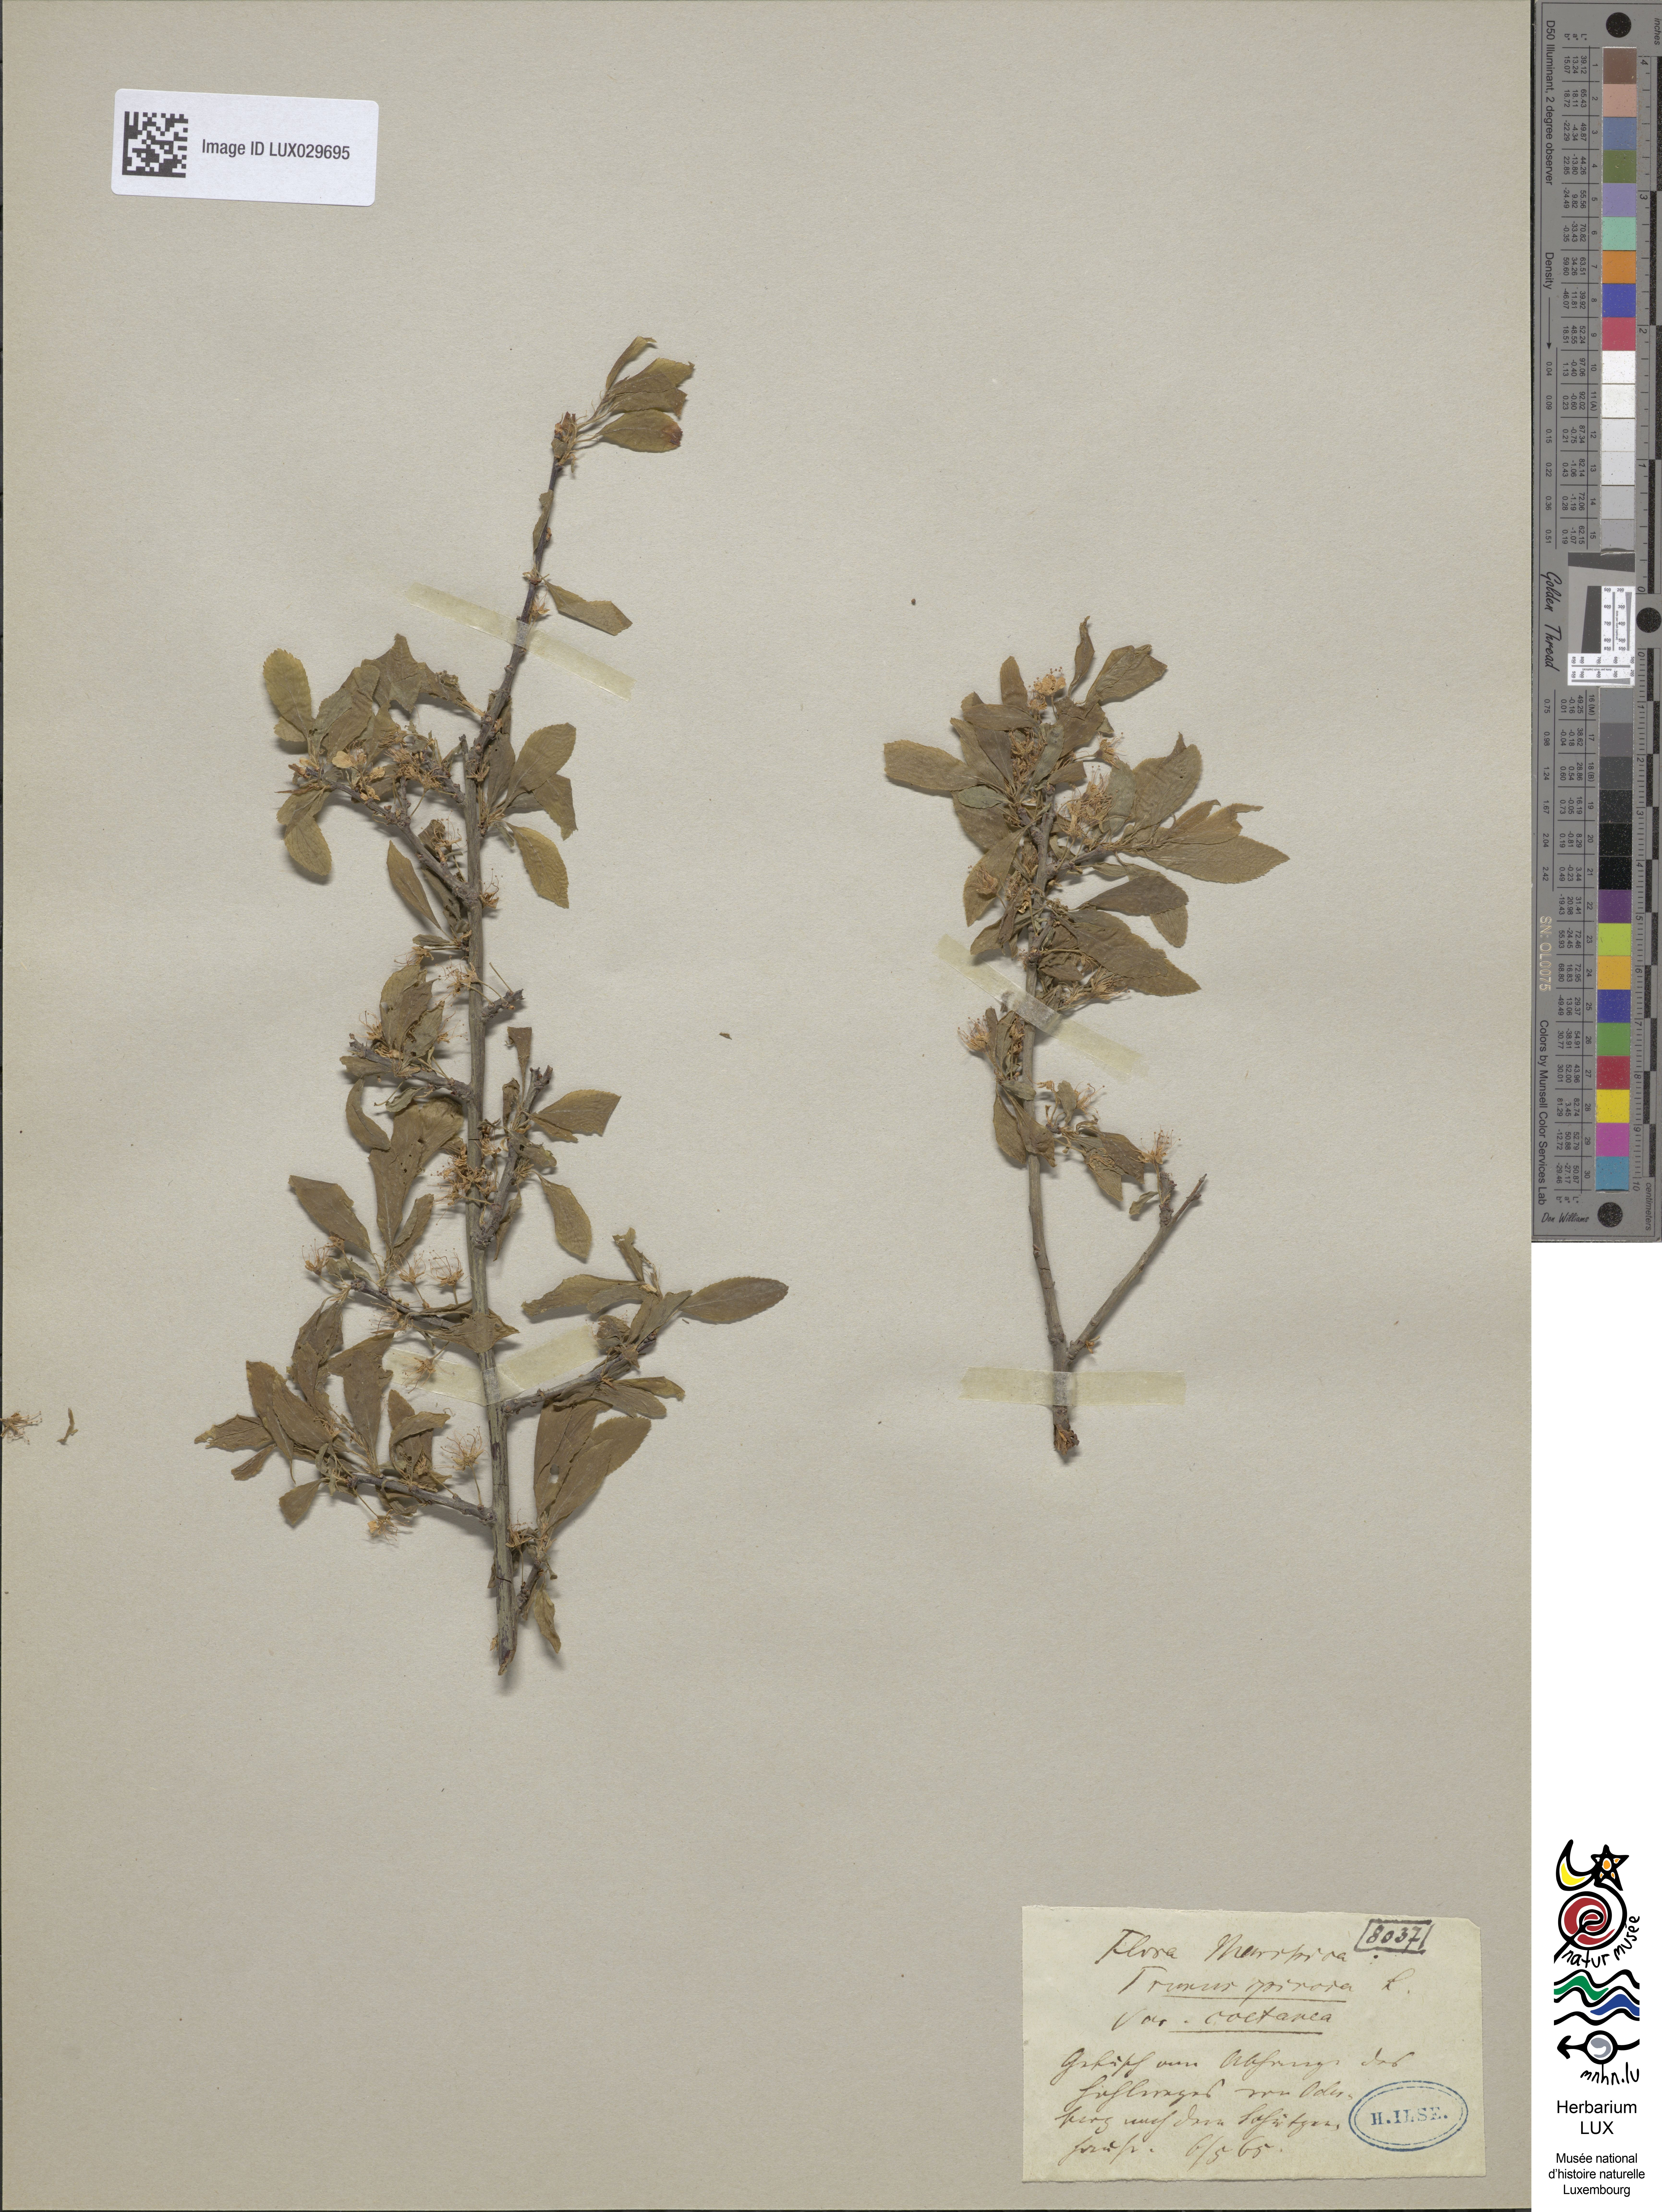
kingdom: Plantae
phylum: Tracheophyta
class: Magnoliopsida
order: Rosales
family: Rosaceae
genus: Prunus
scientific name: Prunus spinosa
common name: Blackthorn
